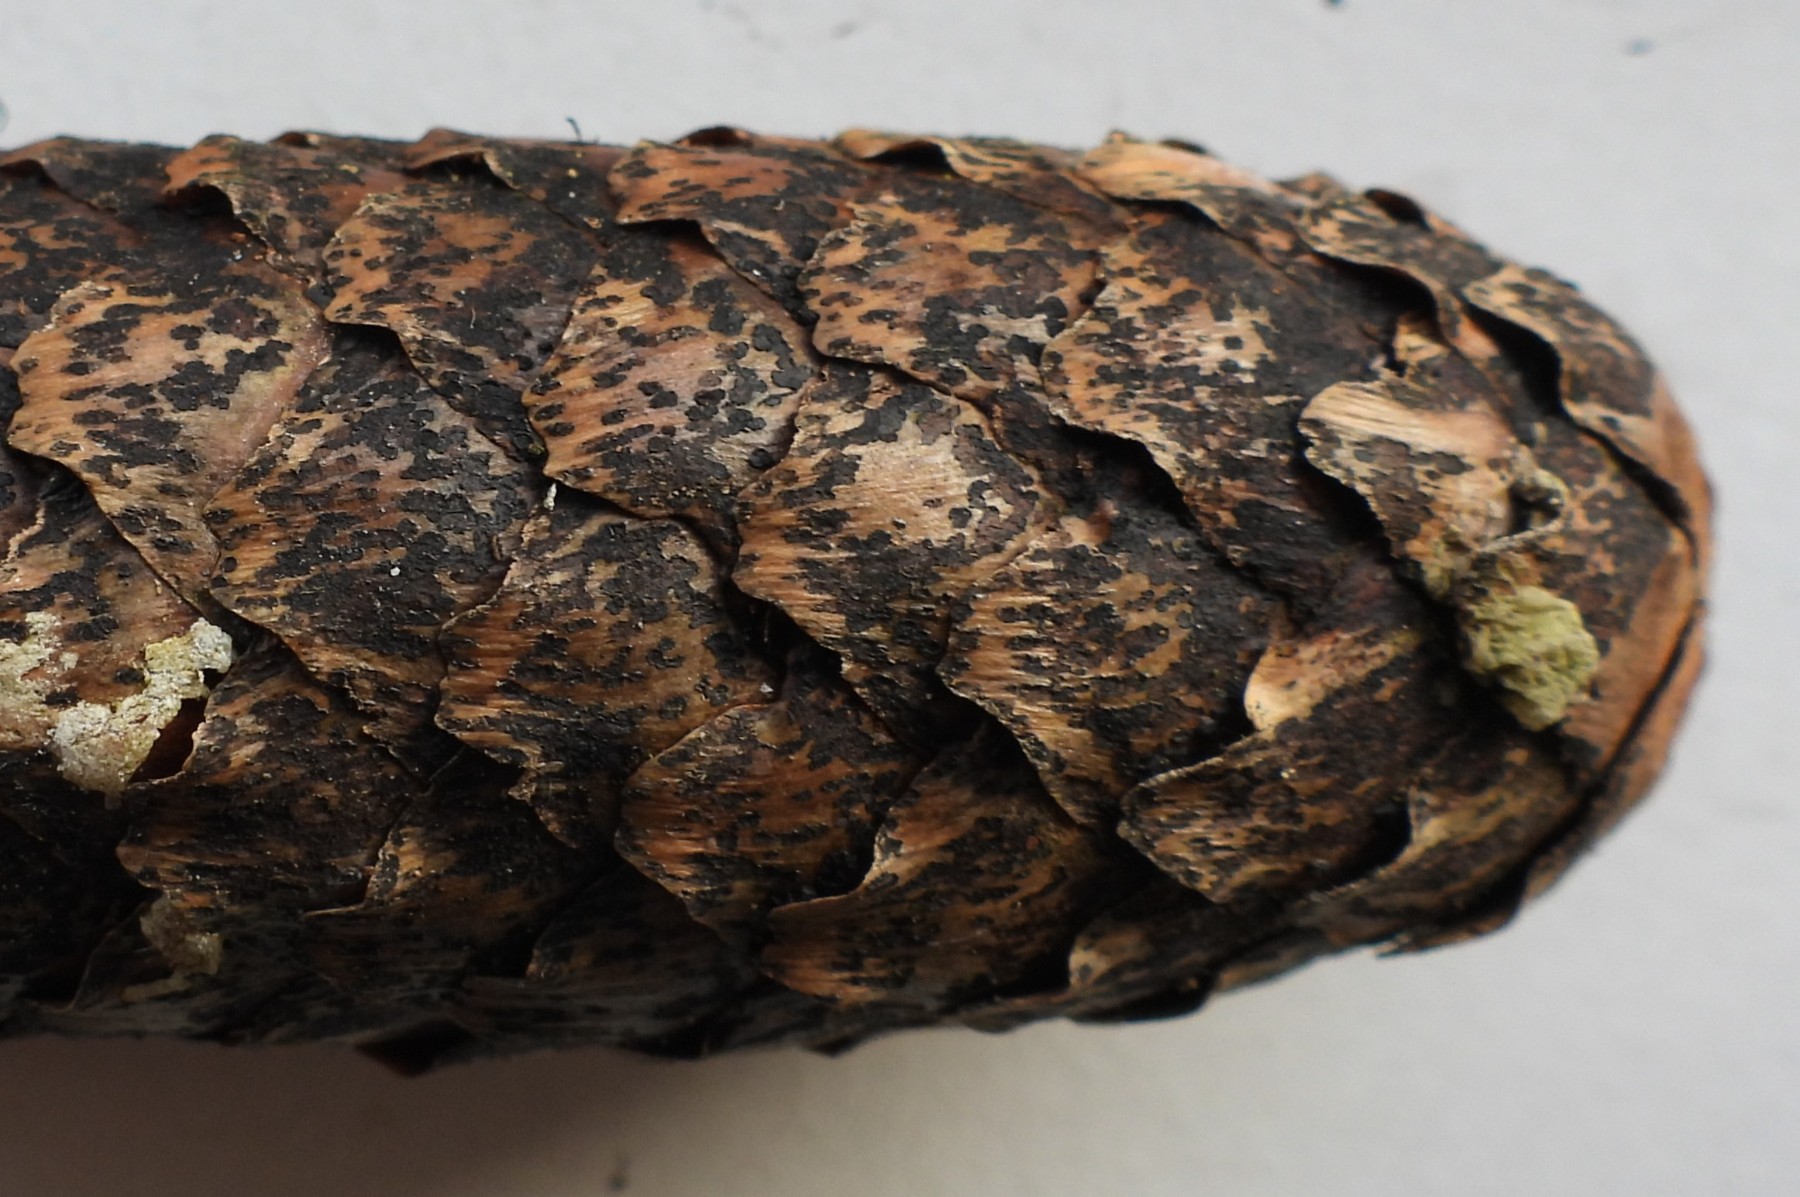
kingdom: Fungi
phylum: Ascomycota
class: Dothideomycetes
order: Pleosporales
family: Melanommataceae
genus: Phragmotrichum
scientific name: Phragmotrichum chailletii
